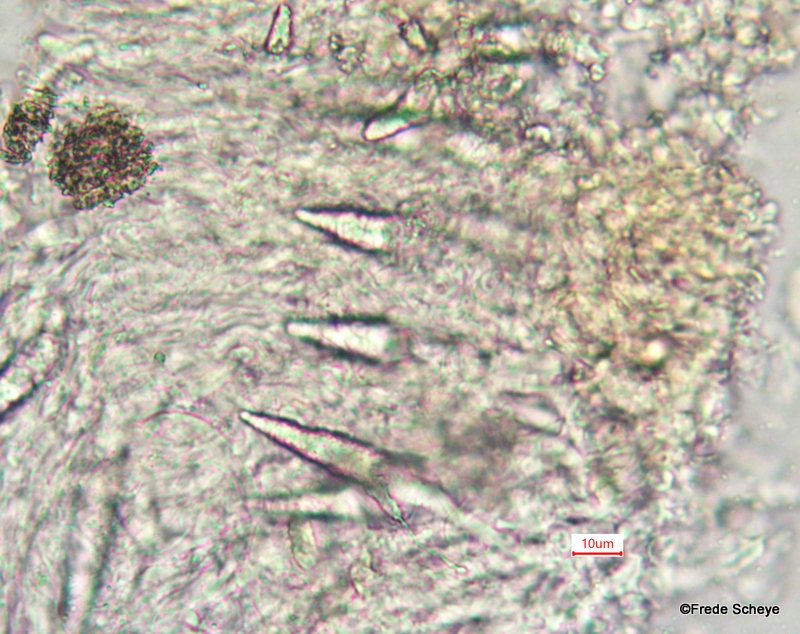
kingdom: Fungi
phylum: Basidiomycota
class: Agaricomycetes
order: Russulales
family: Peniophoraceae
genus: Peniophora
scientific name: Peniophora quercina
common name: ege-voksskind
